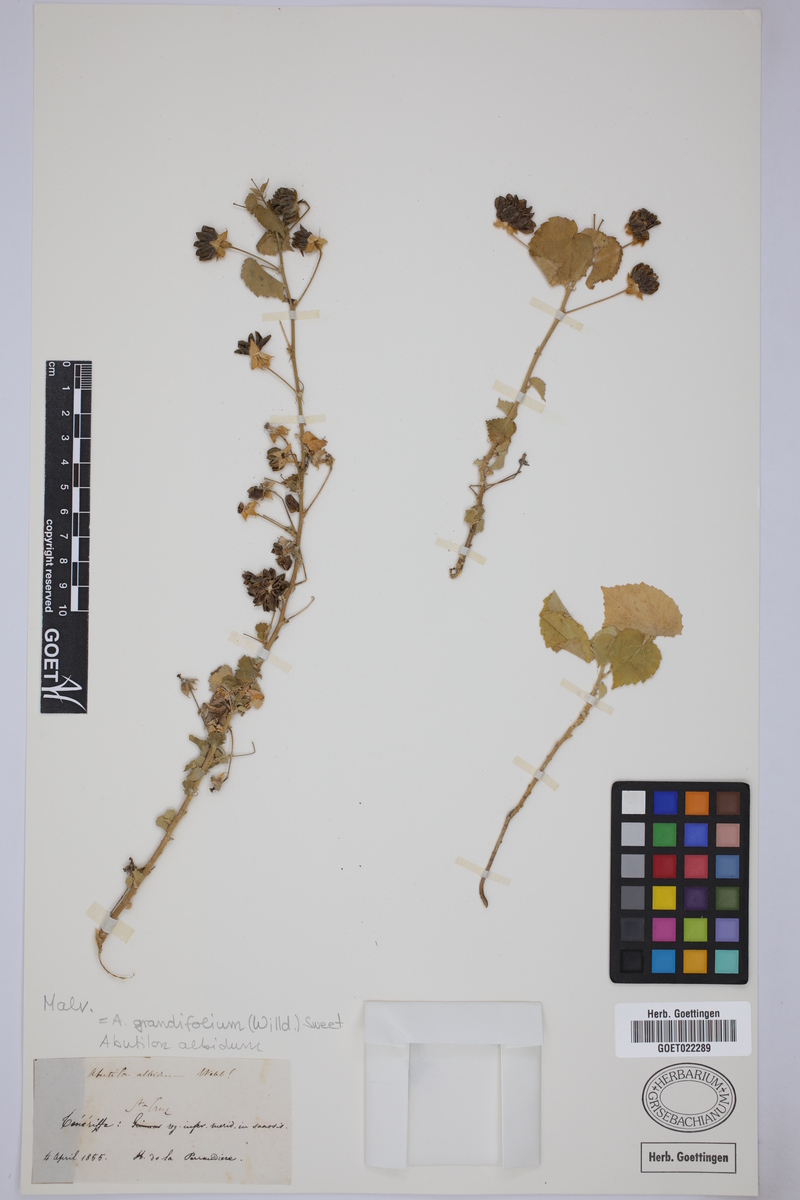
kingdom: Plantae
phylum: Tracheophyta
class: Magnoliopsida
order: Malvales
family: Malvaceae
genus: Abutilon
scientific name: Abutilon grandifolium
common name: Hairy abutilon
